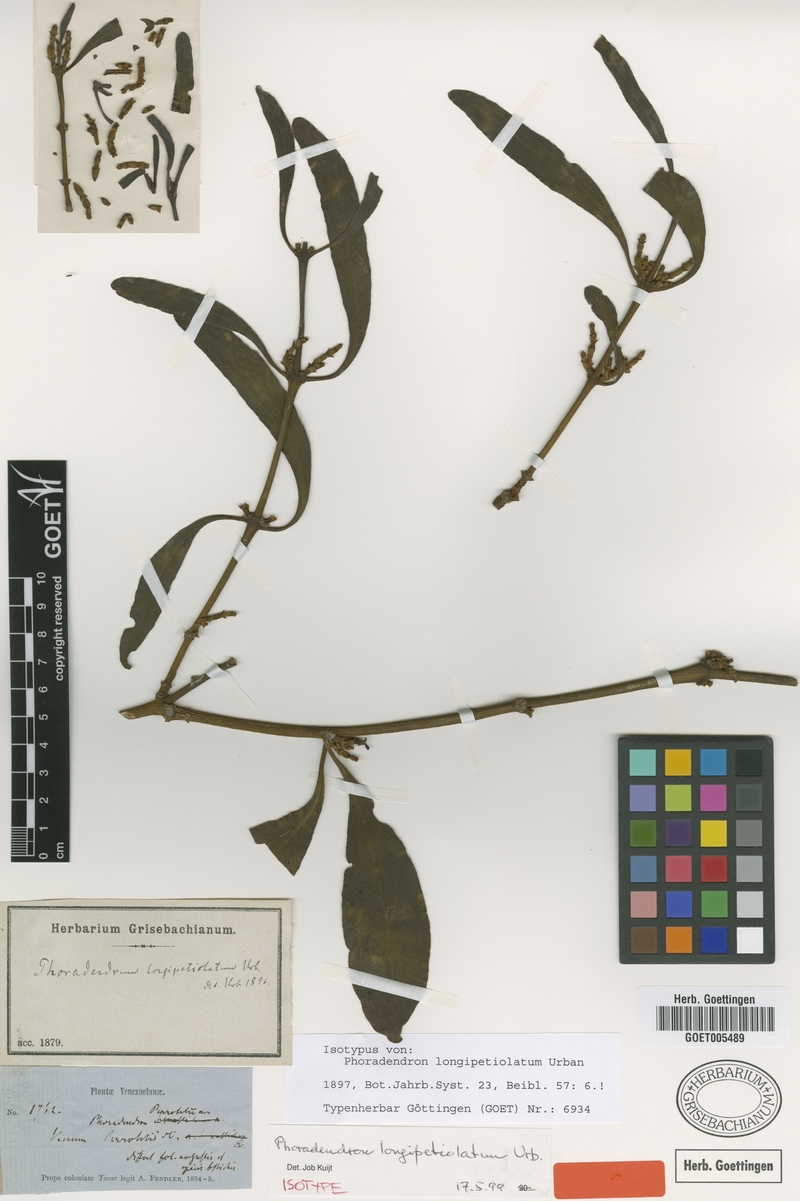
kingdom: Plantae
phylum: Tracheophyta
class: Magnoliopsida
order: Santalales
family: Viscaceae
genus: Phoradendron
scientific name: Phoradendron longipetiolatum
